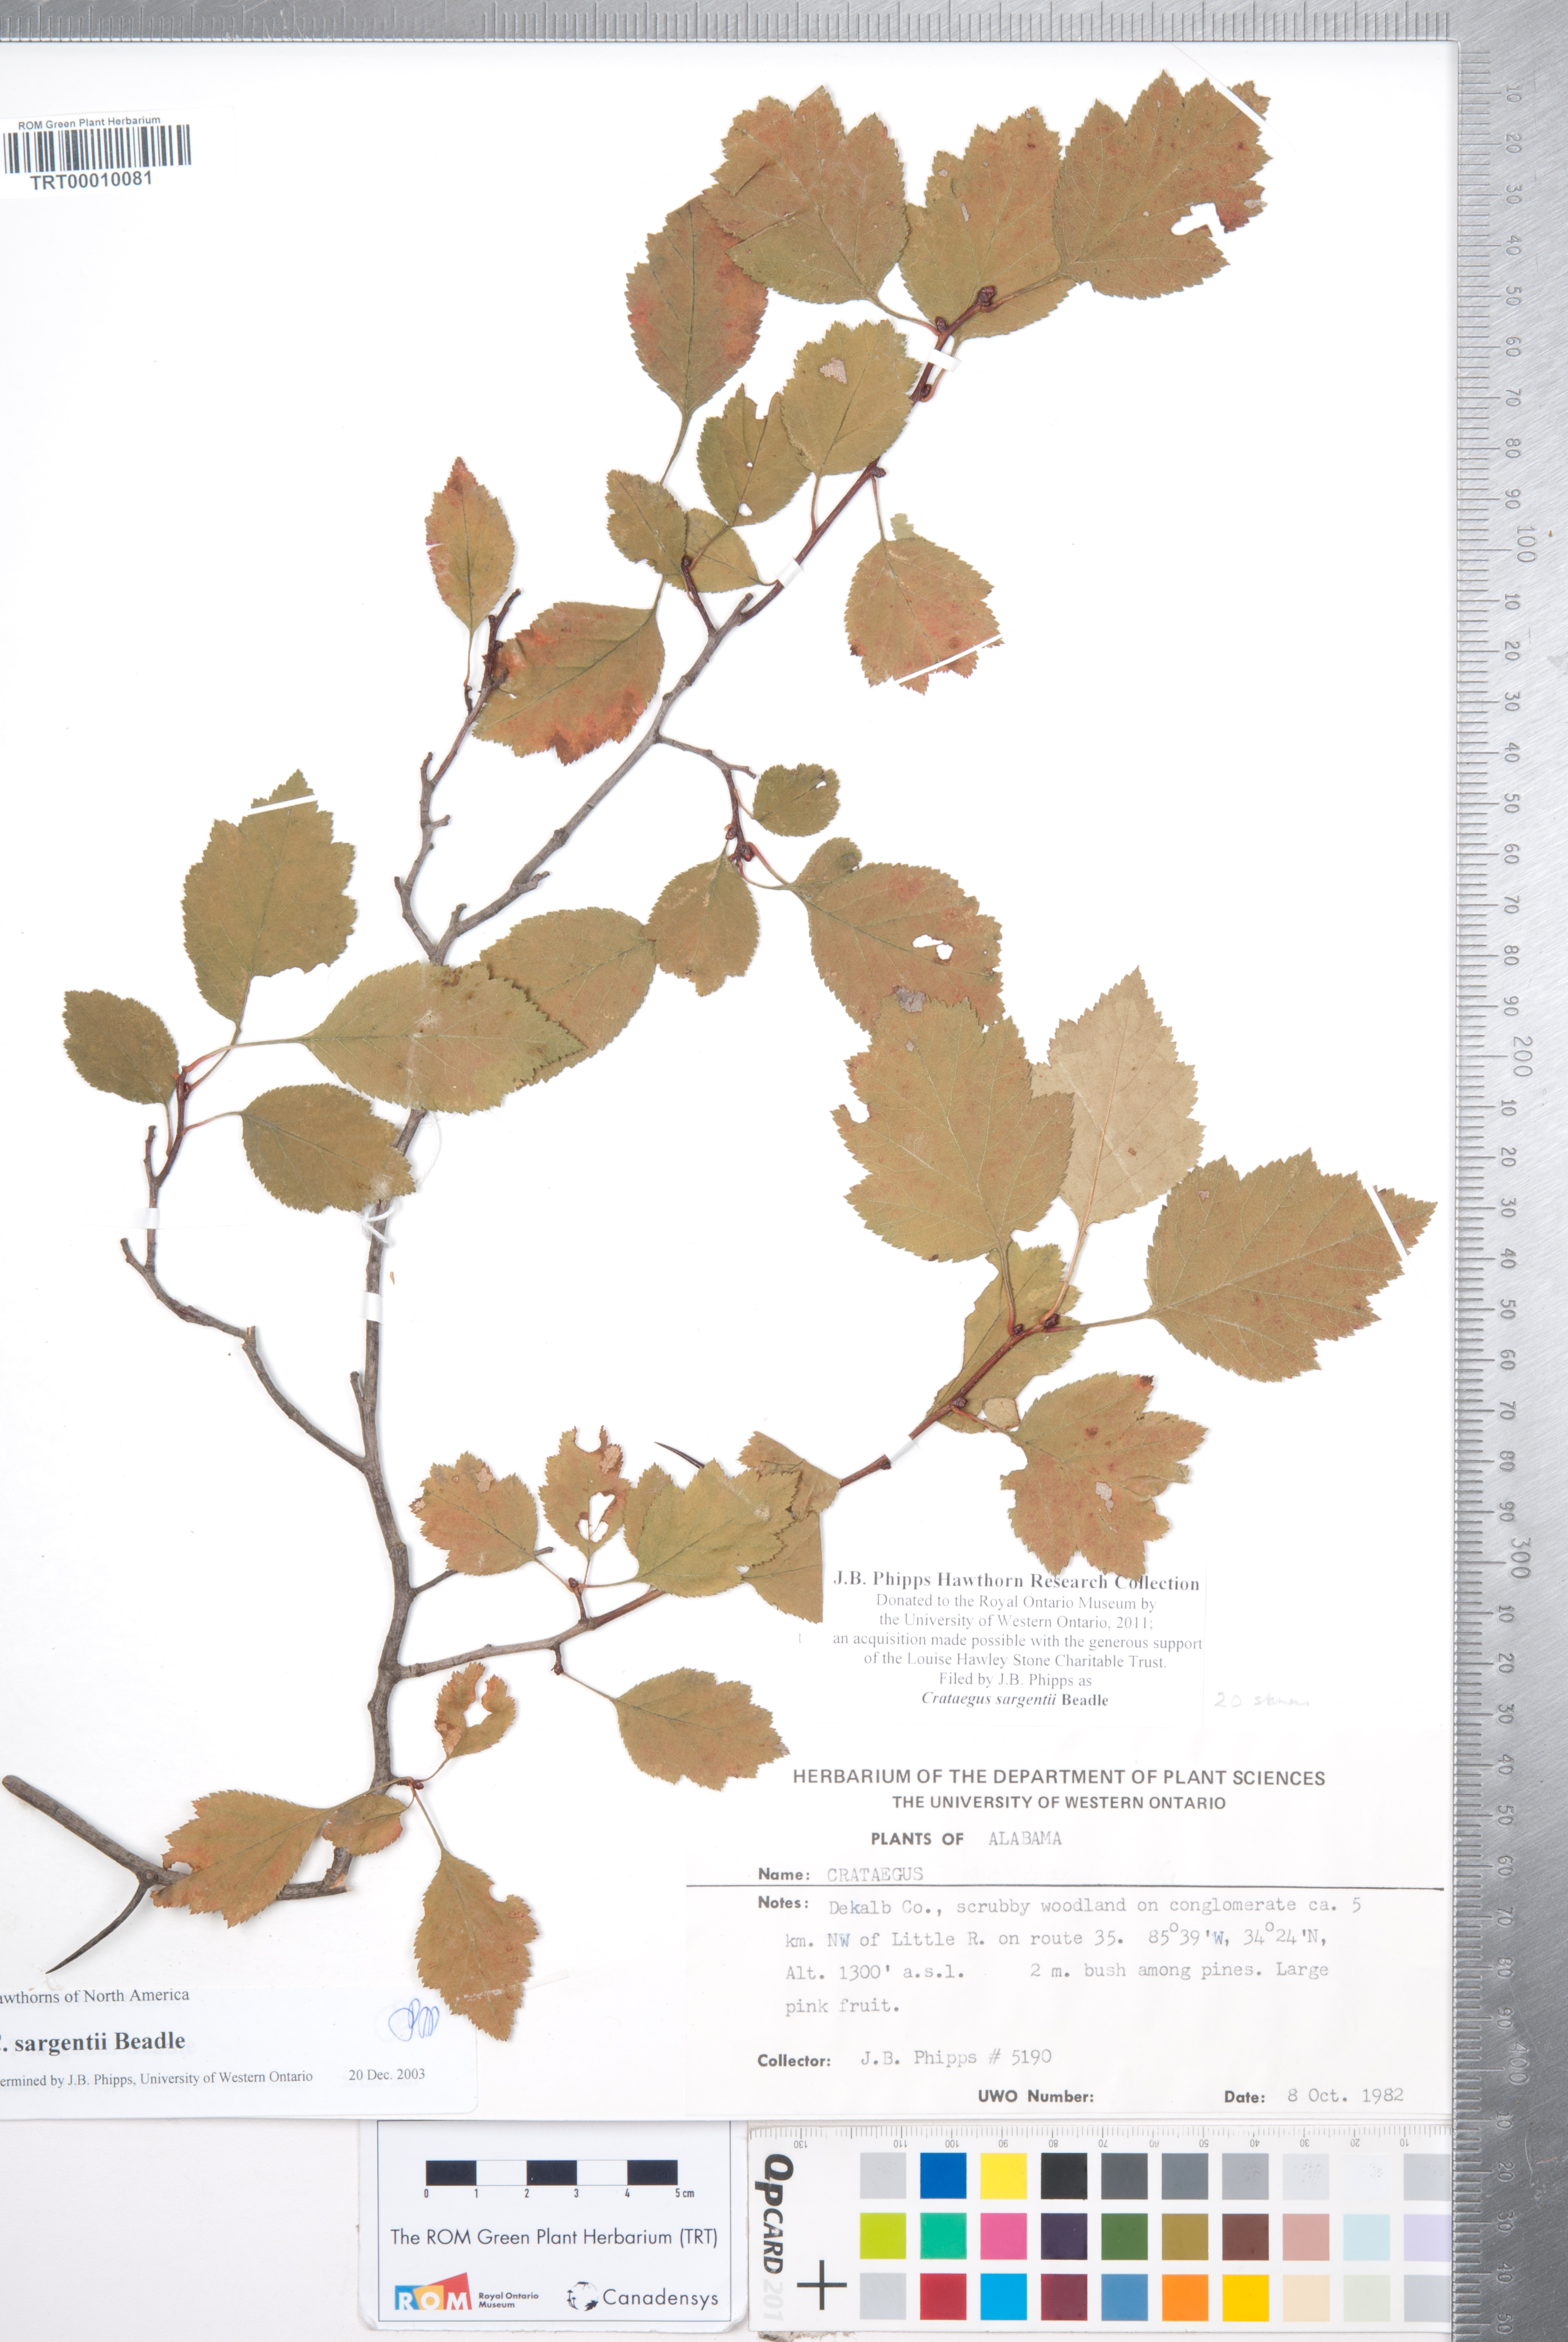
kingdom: Plantae
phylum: Tracheophyta
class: Magnoliopsida
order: Rosales
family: Rosaceae
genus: Crataegus
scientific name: Crataegus sargentii
